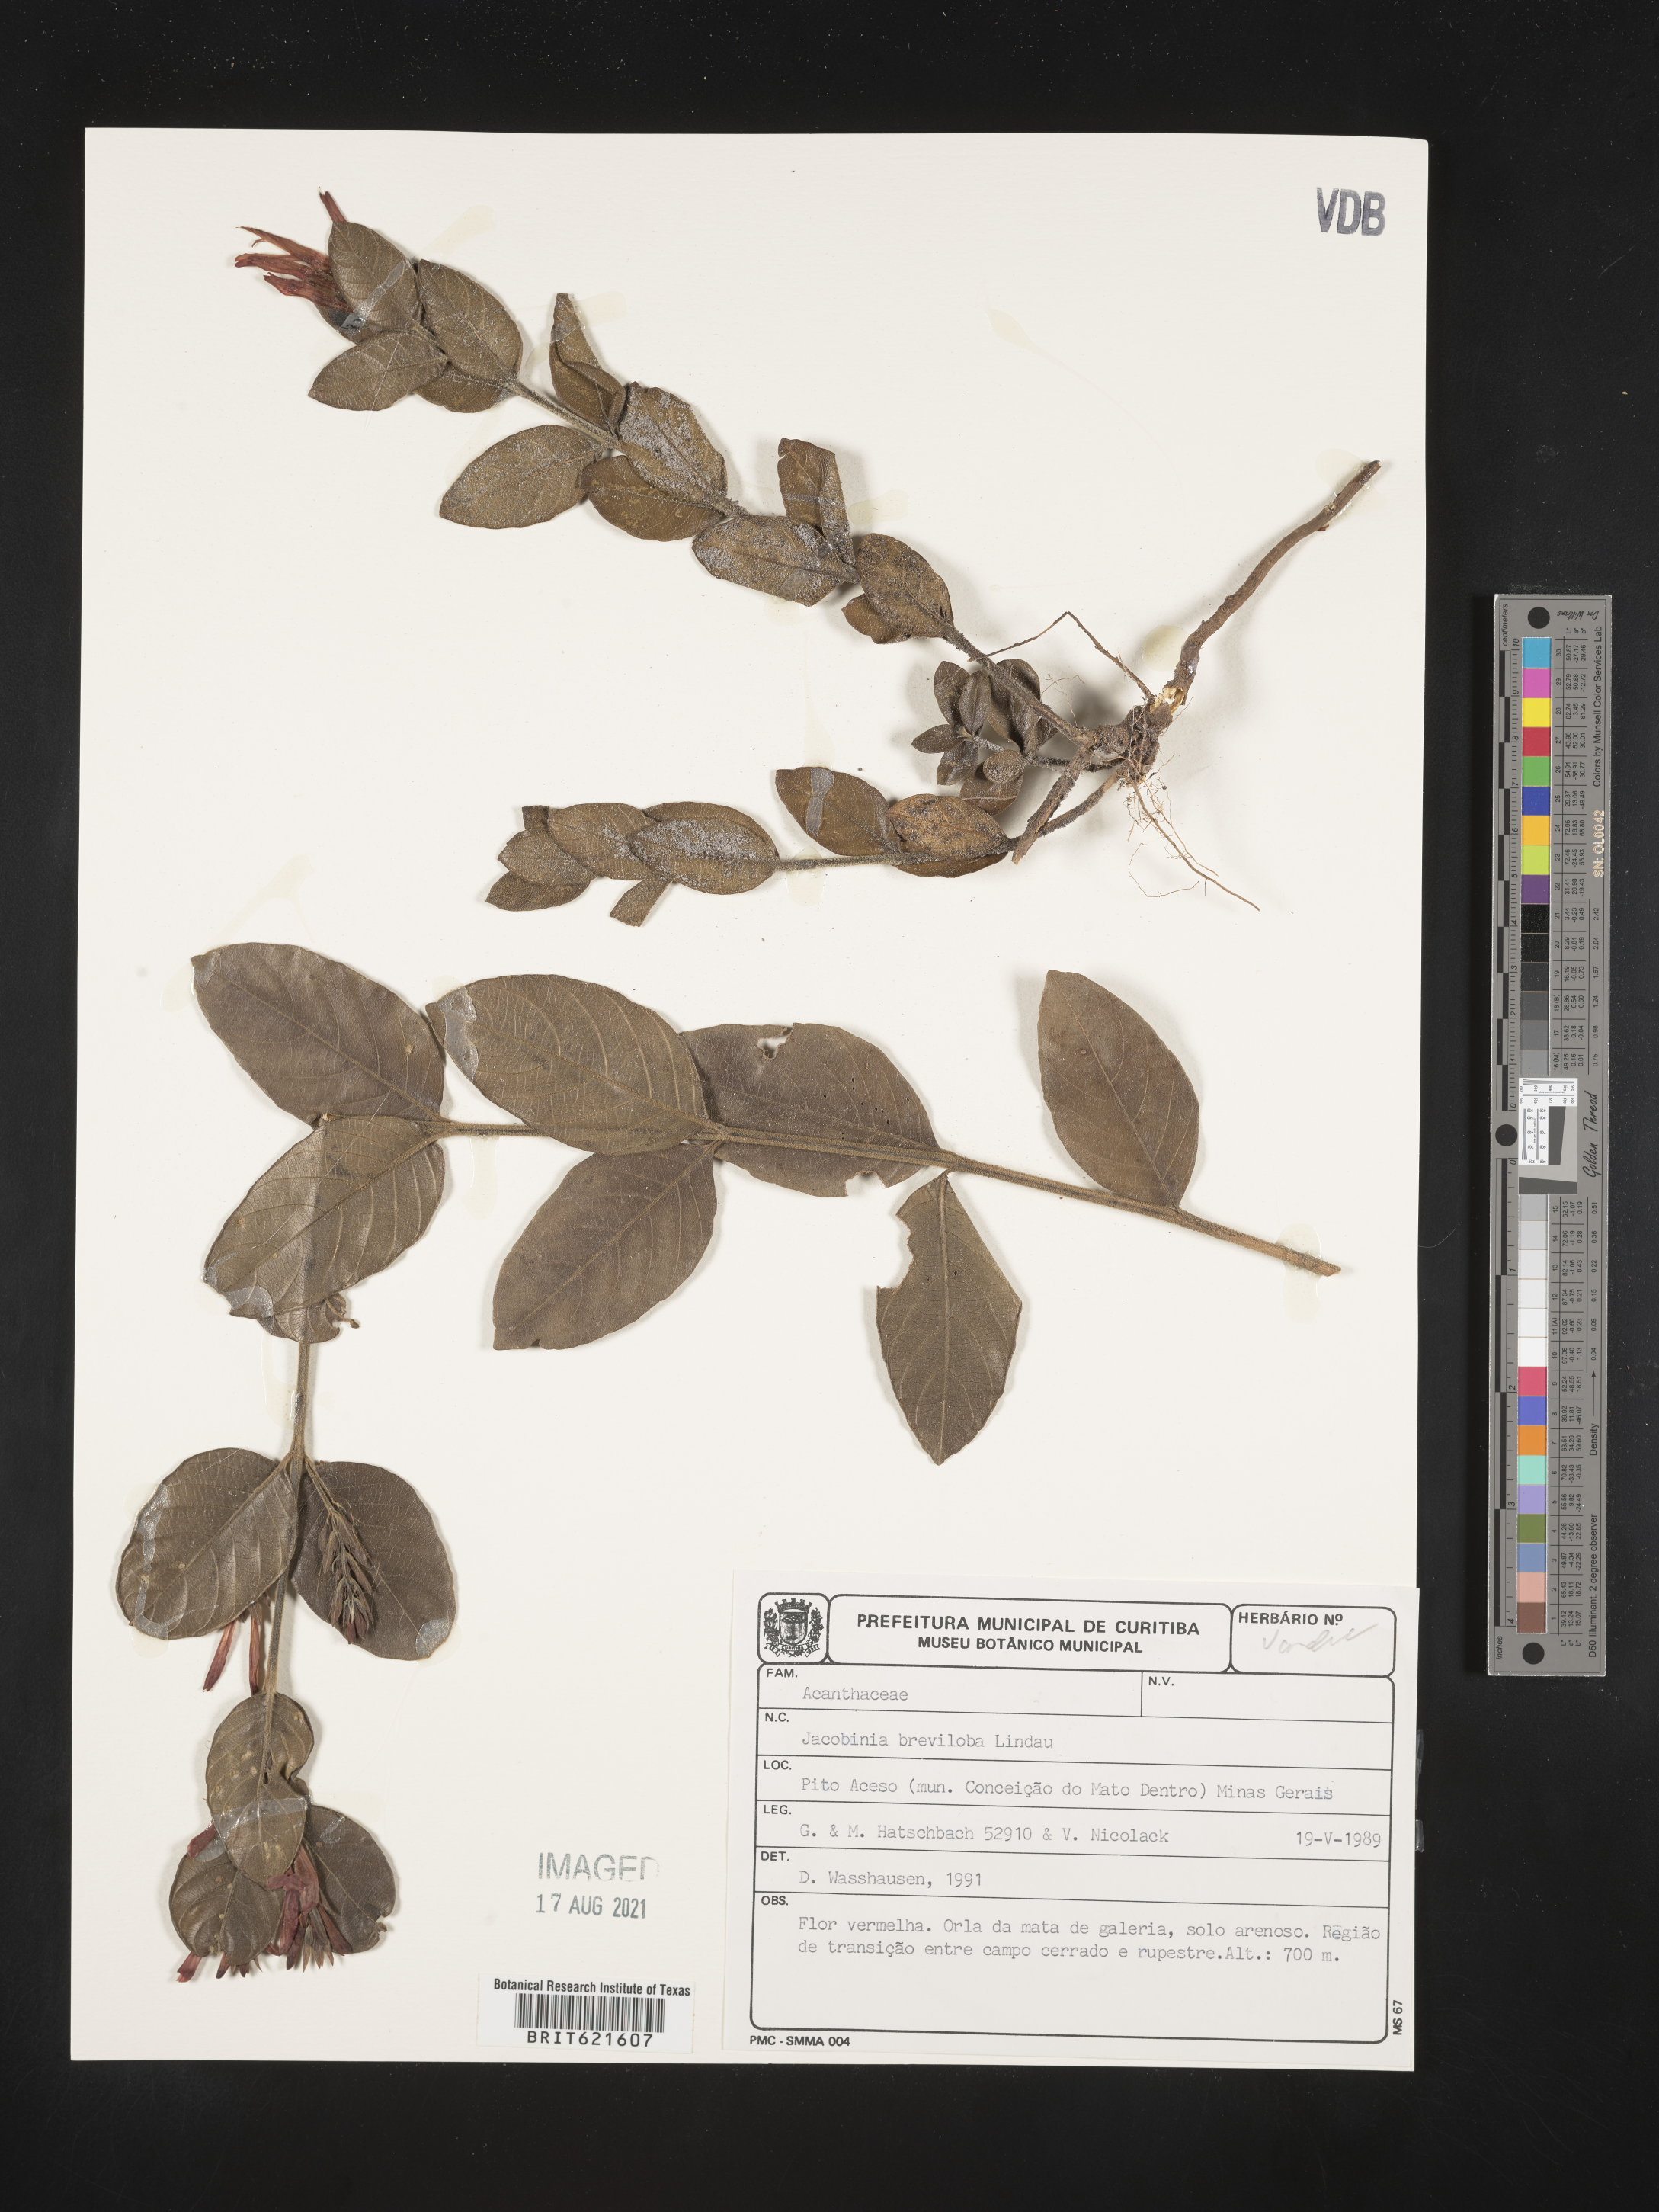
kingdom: Plantae
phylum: Tracheophyta
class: Magnoliopsida
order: Lamiales
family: Acanthaceae
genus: Justicia
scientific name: Justicia
